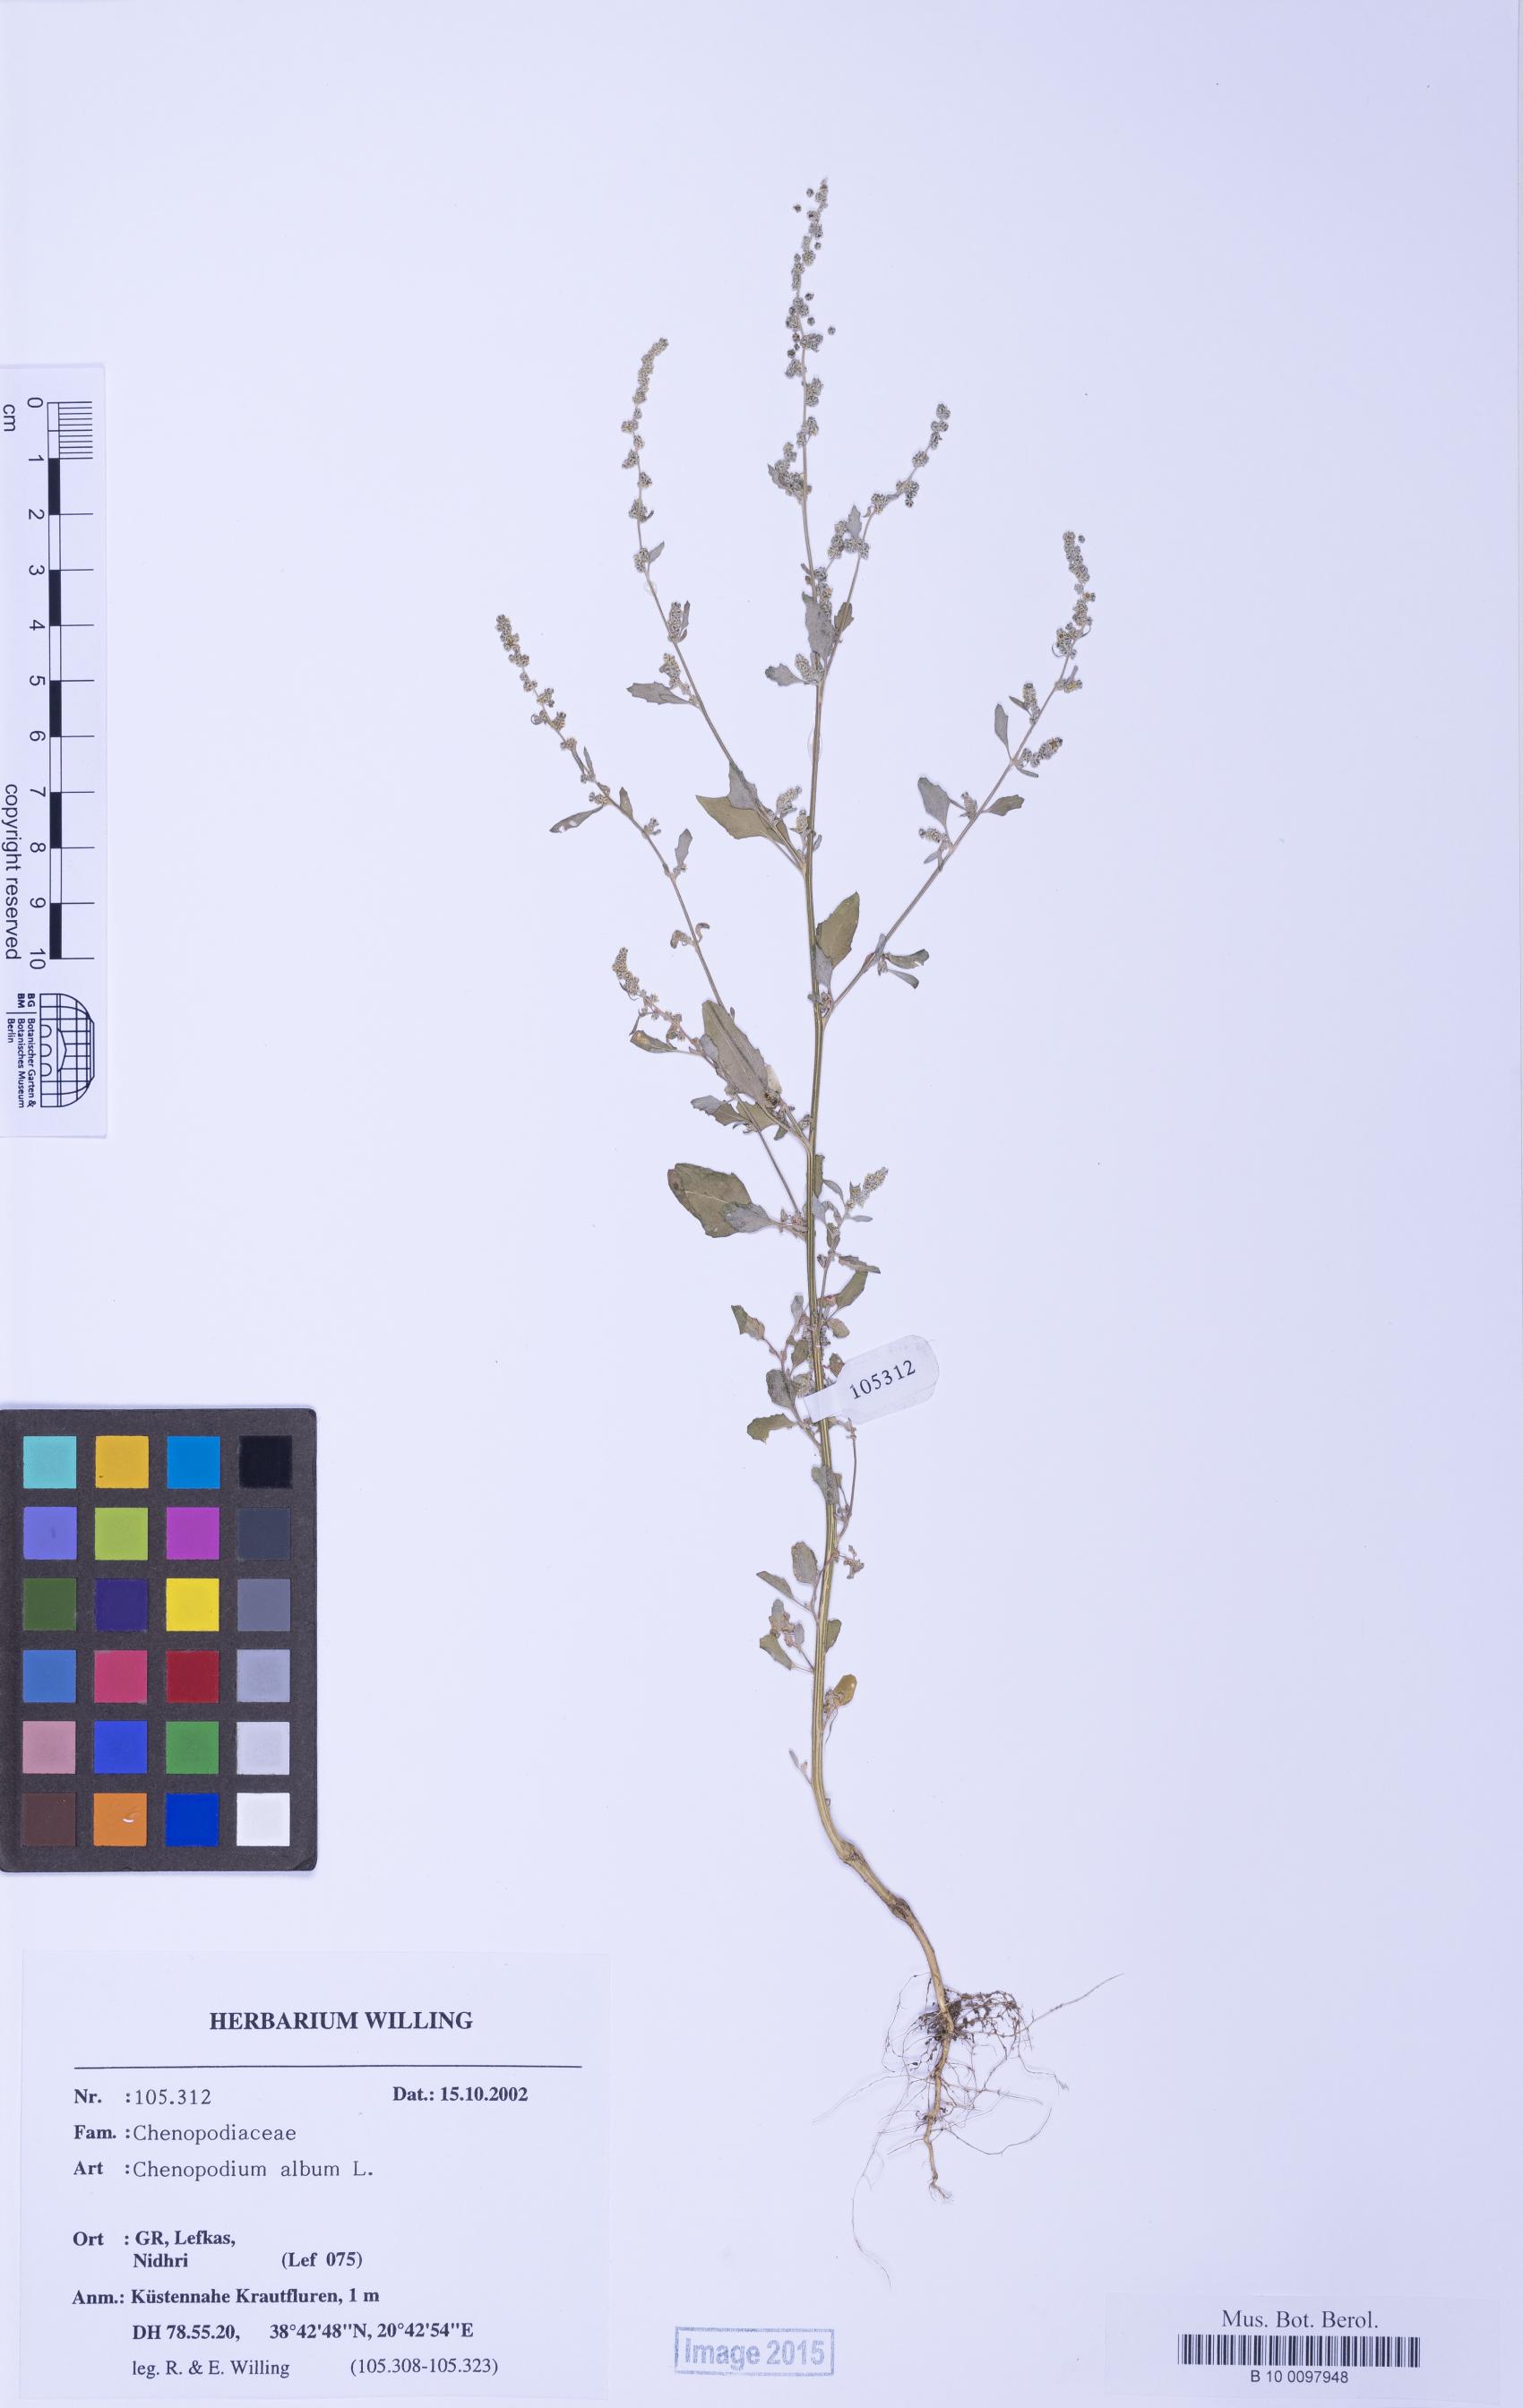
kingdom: Plantae
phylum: Tracheophyta
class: Magnoliopsida
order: Caryophyllales
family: Amaranthaceae
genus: Chenopodium
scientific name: Chenopodium striatiforme
